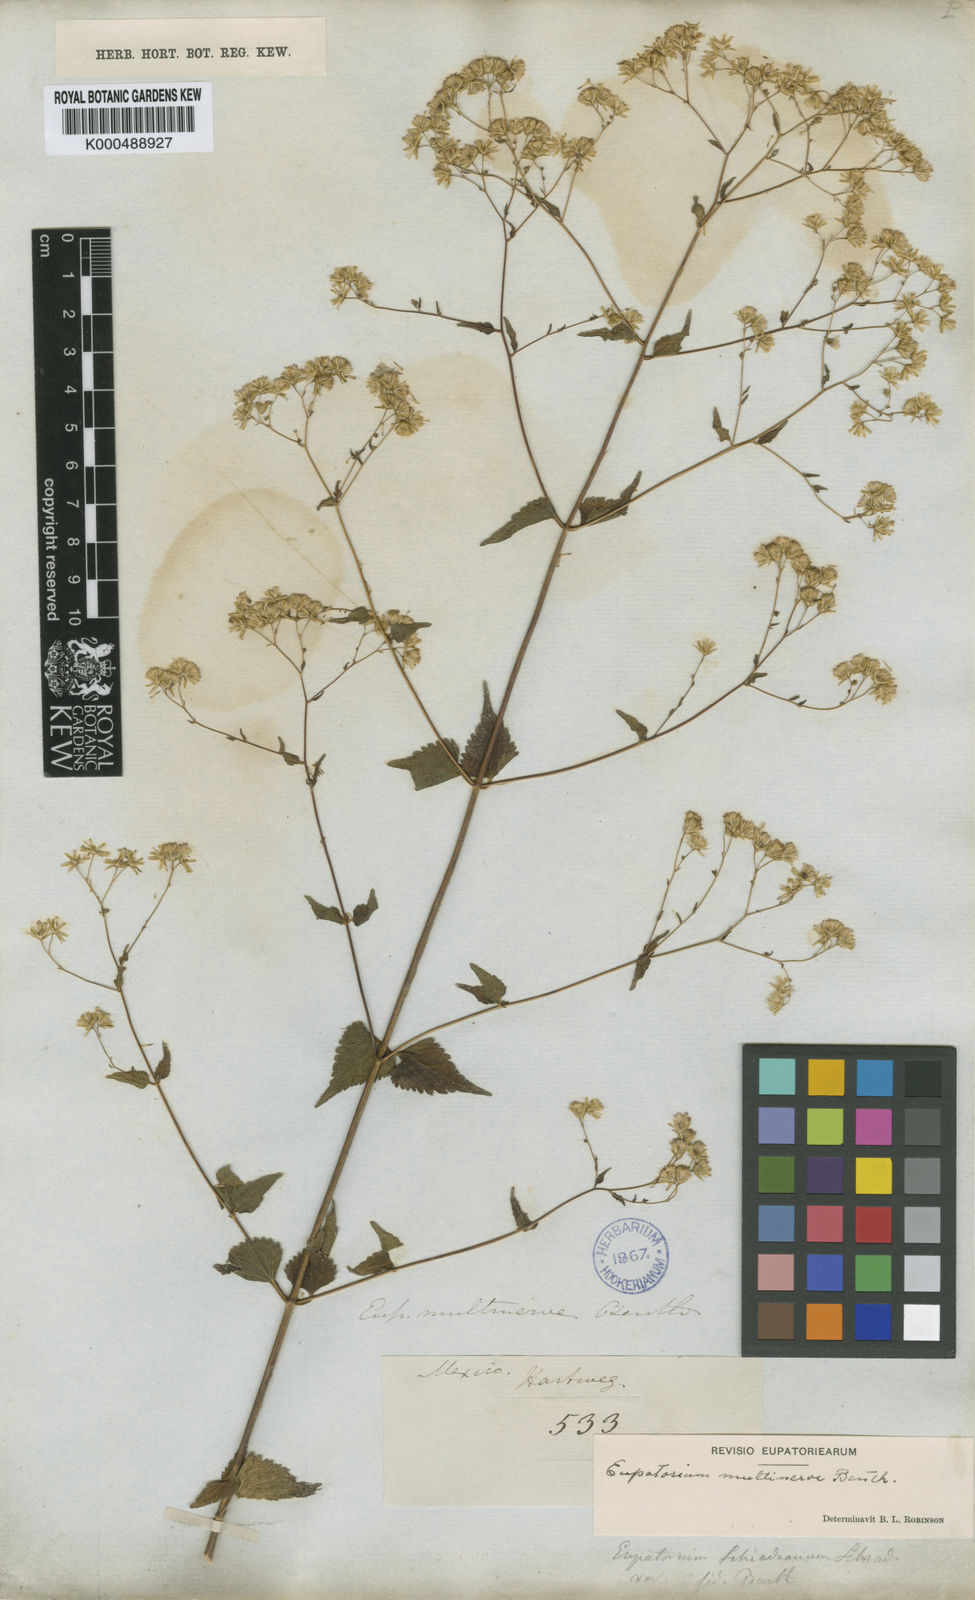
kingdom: Plantae
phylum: Tracheophyta
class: Magnoliopsida
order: Asterales
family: Asteraceae
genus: Fleischmannia
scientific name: Fleischmannia multinervis
